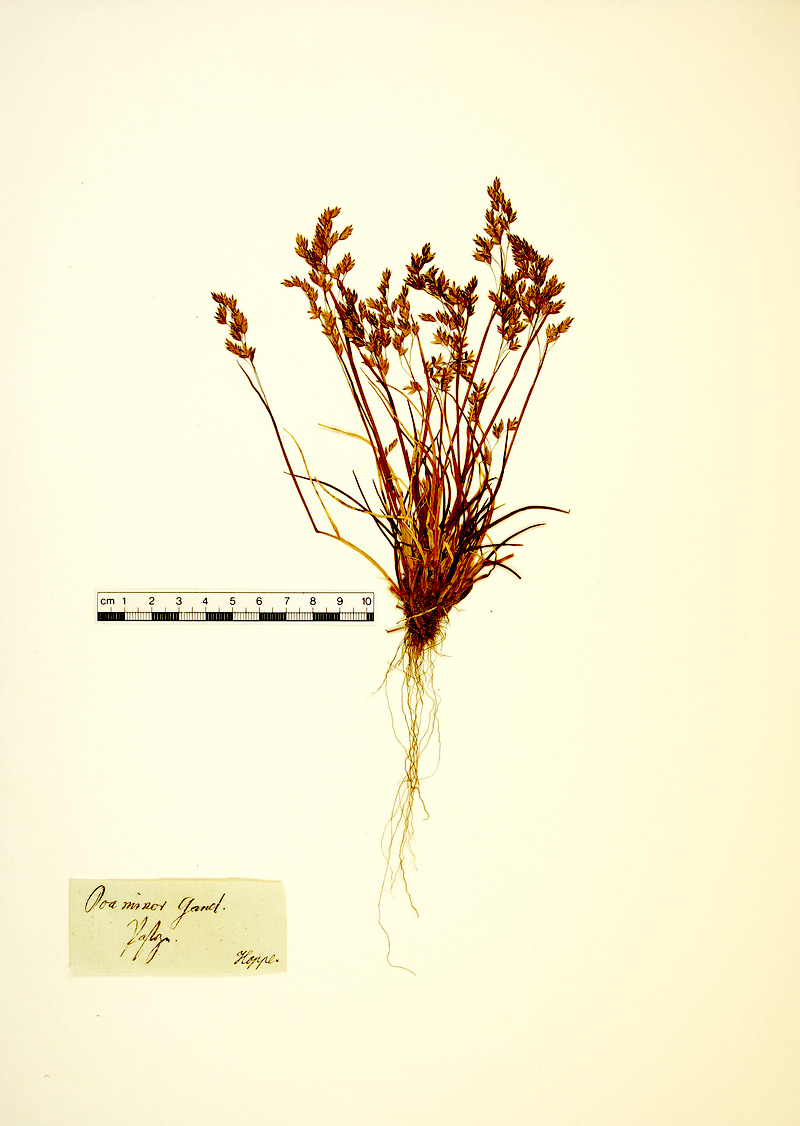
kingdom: Plantae
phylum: Tracheophyta
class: Liliopsida
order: Poales
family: Poaceae
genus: Poa
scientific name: Poa minor
